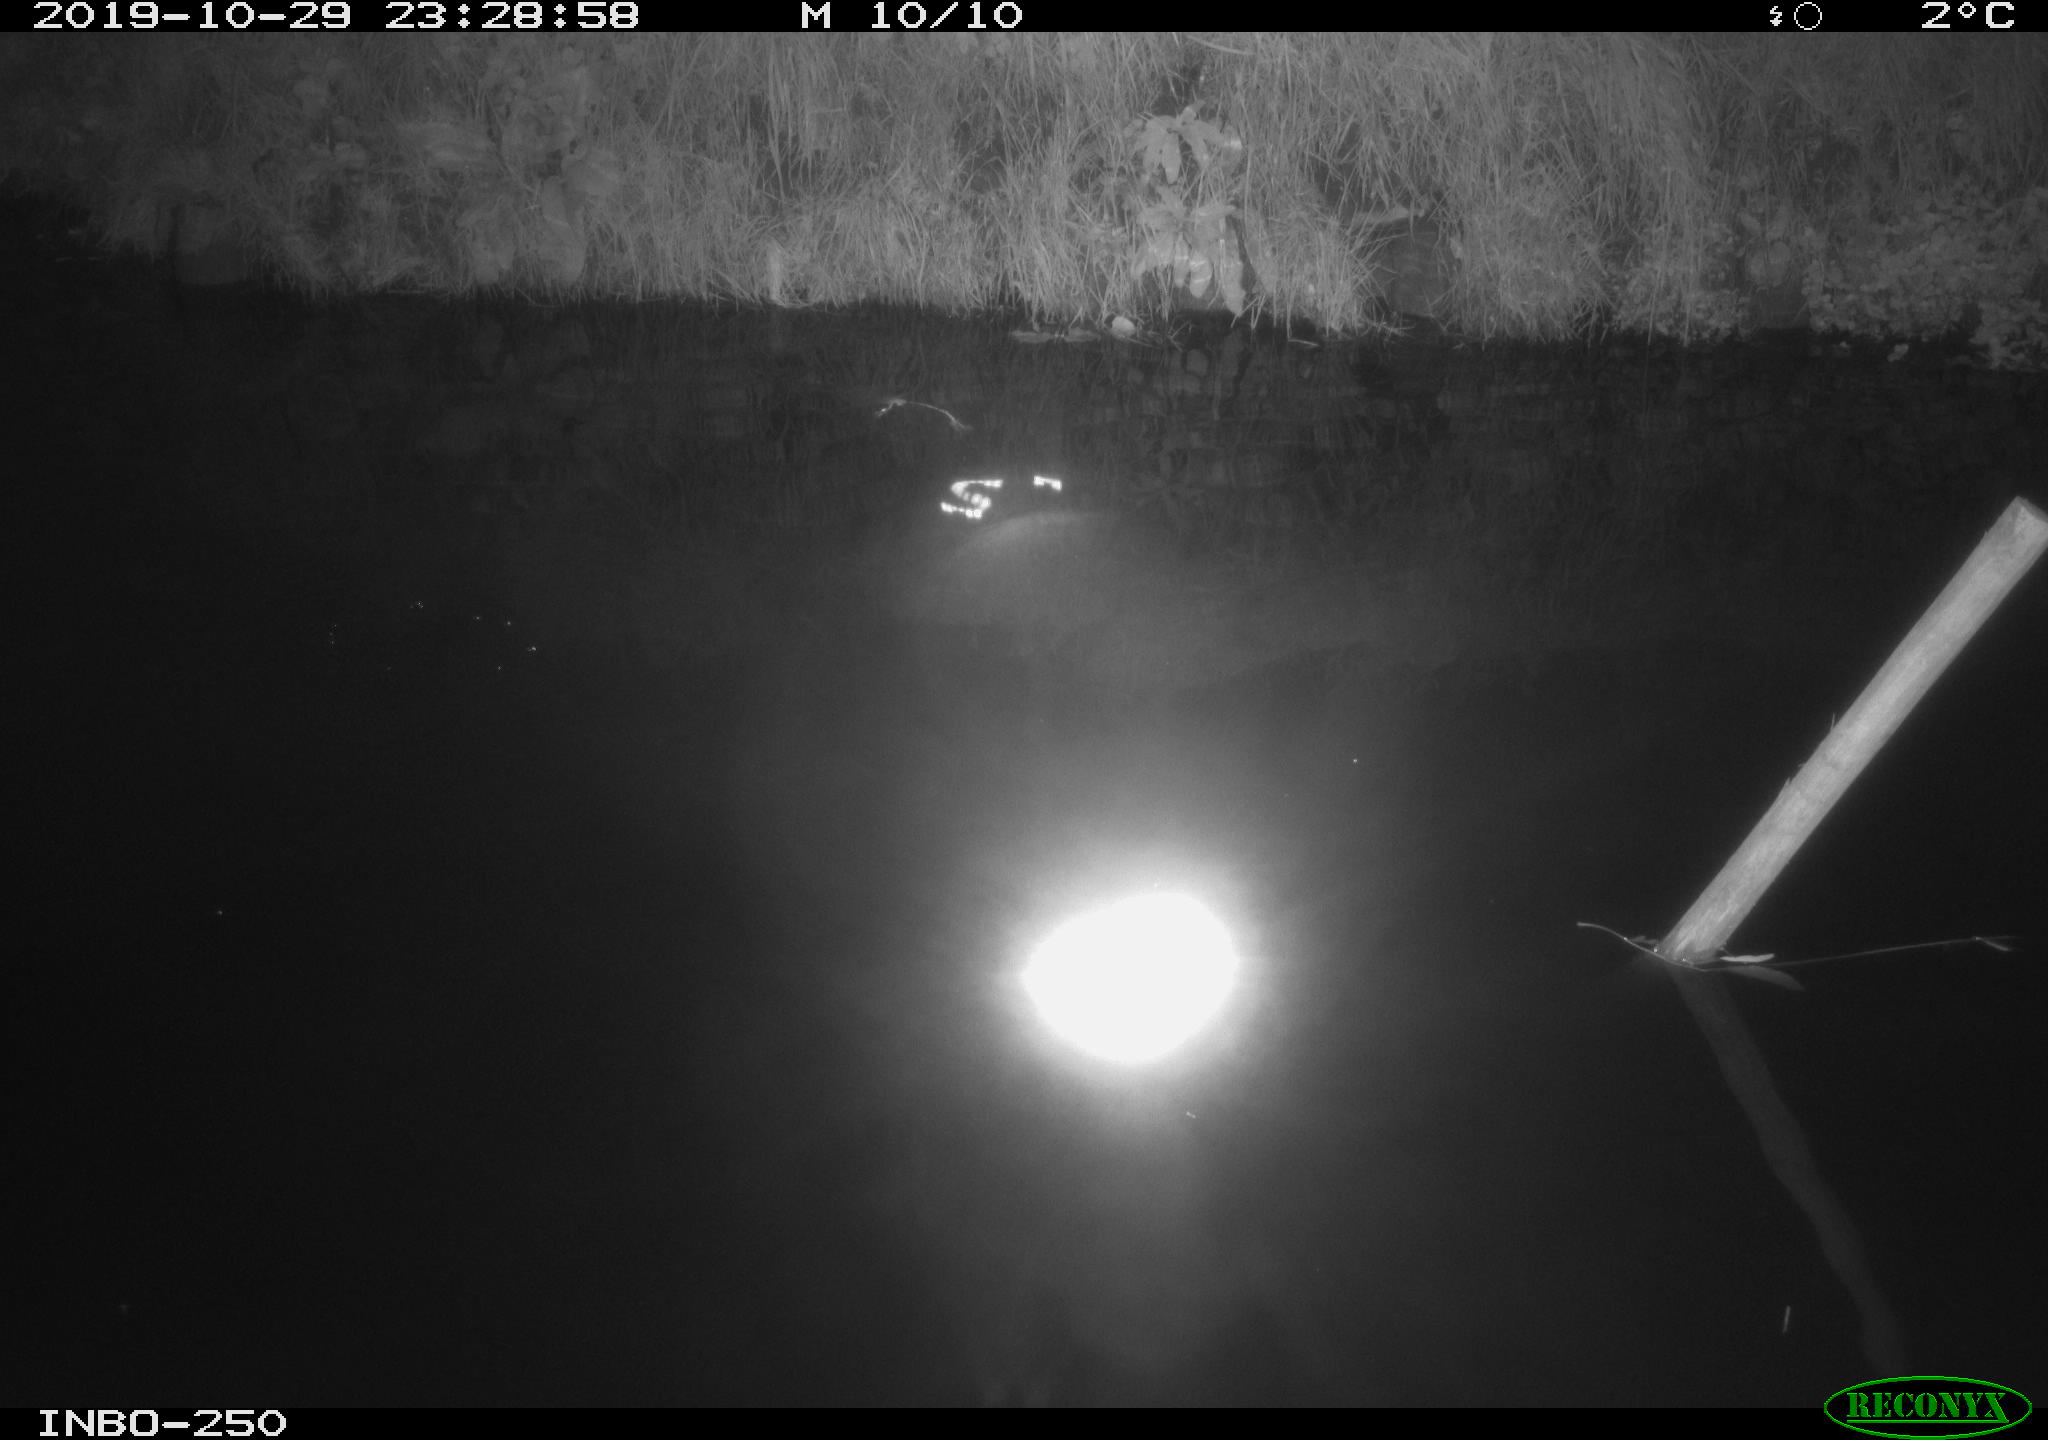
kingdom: Animalia
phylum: Chordata
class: Aves
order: Anseriformes
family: Anatidae
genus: Anas
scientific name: Anas platyrhynchos
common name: Mallard
